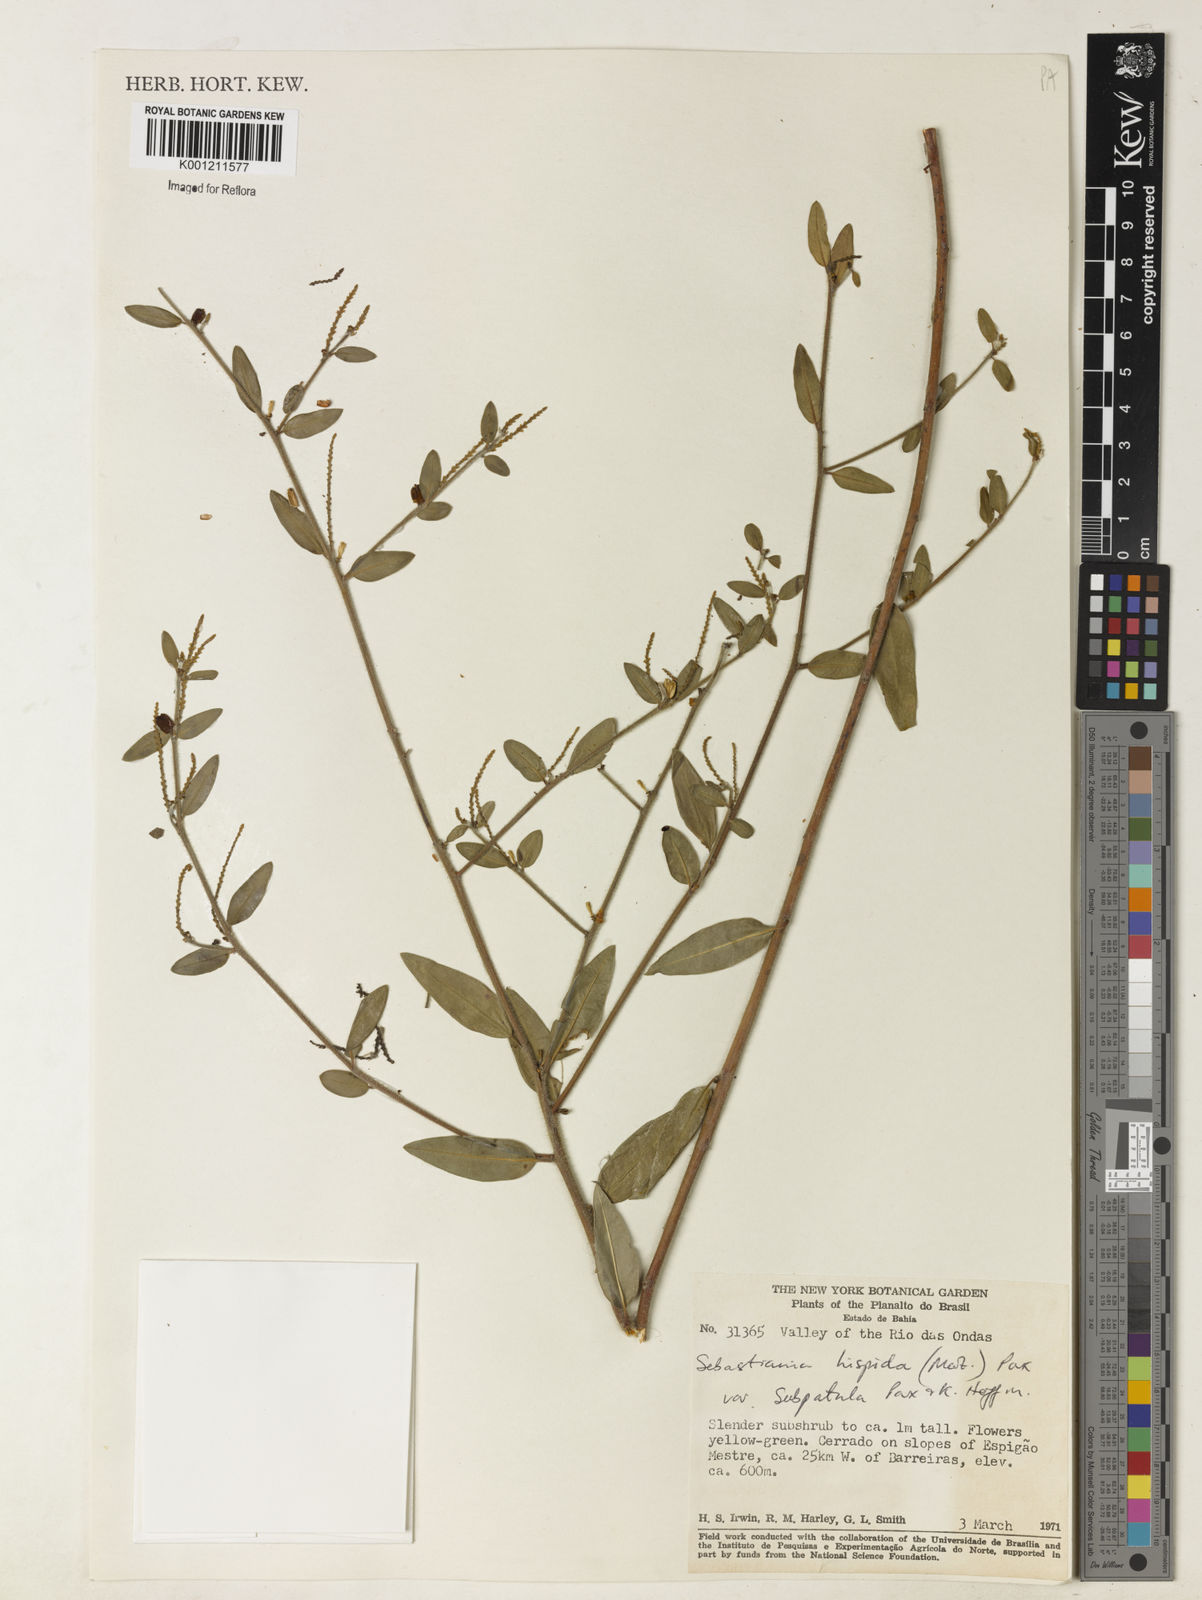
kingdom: Plantae
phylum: Tracheophyta
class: Magnoliopsida
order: Malpighiales
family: Euphorbiaceae
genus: Microstachys
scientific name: Microstachys hispida
